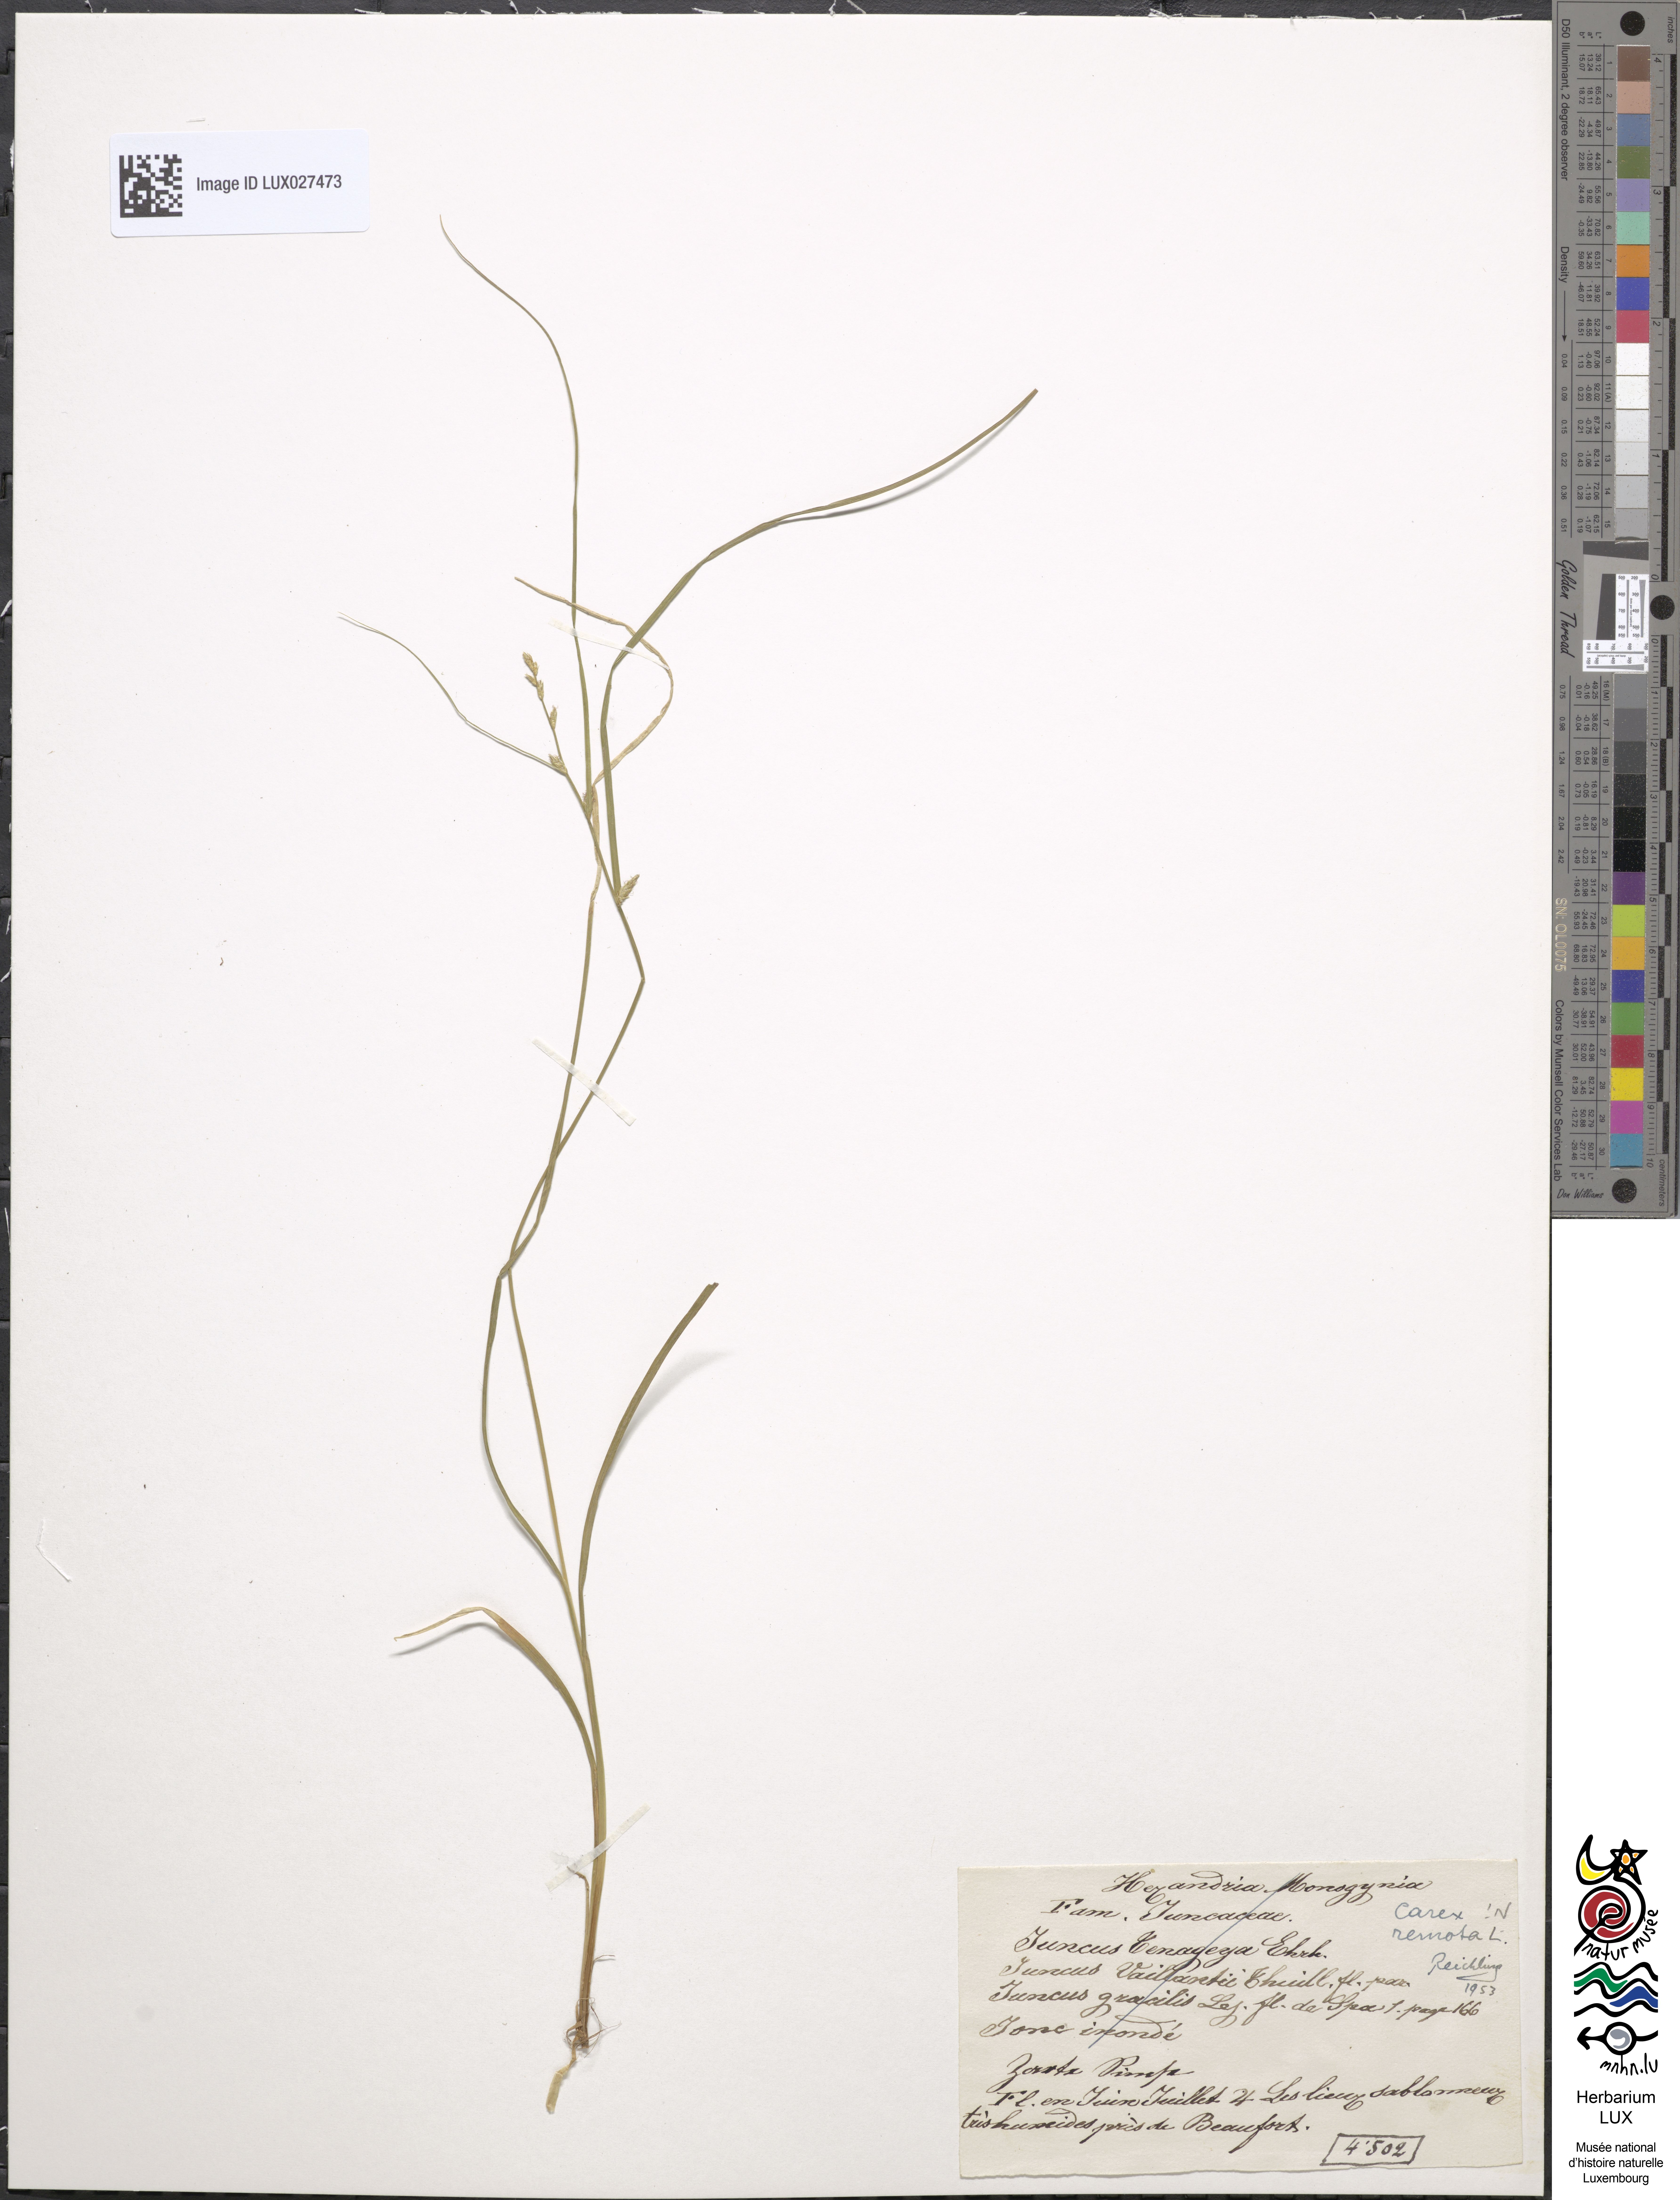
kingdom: Plantae
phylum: Tracheophyta
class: Liliopsida
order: Poales
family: Cyperaceae
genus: Carex
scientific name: Carex remota
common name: Remote sedge
